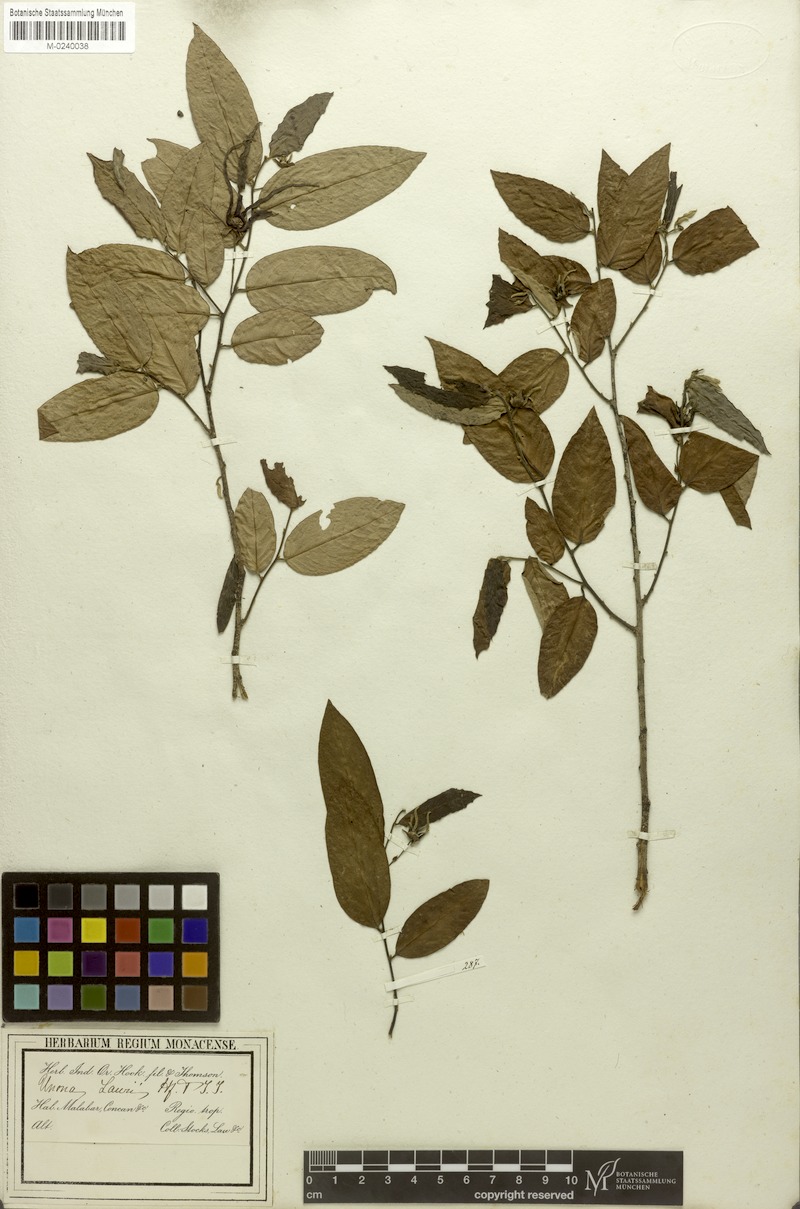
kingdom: Plantae
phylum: Tracheophyta
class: Magnoliopsida
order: Magnoliales
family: Annonaceae
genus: Desmos
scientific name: Desmos chinensis
